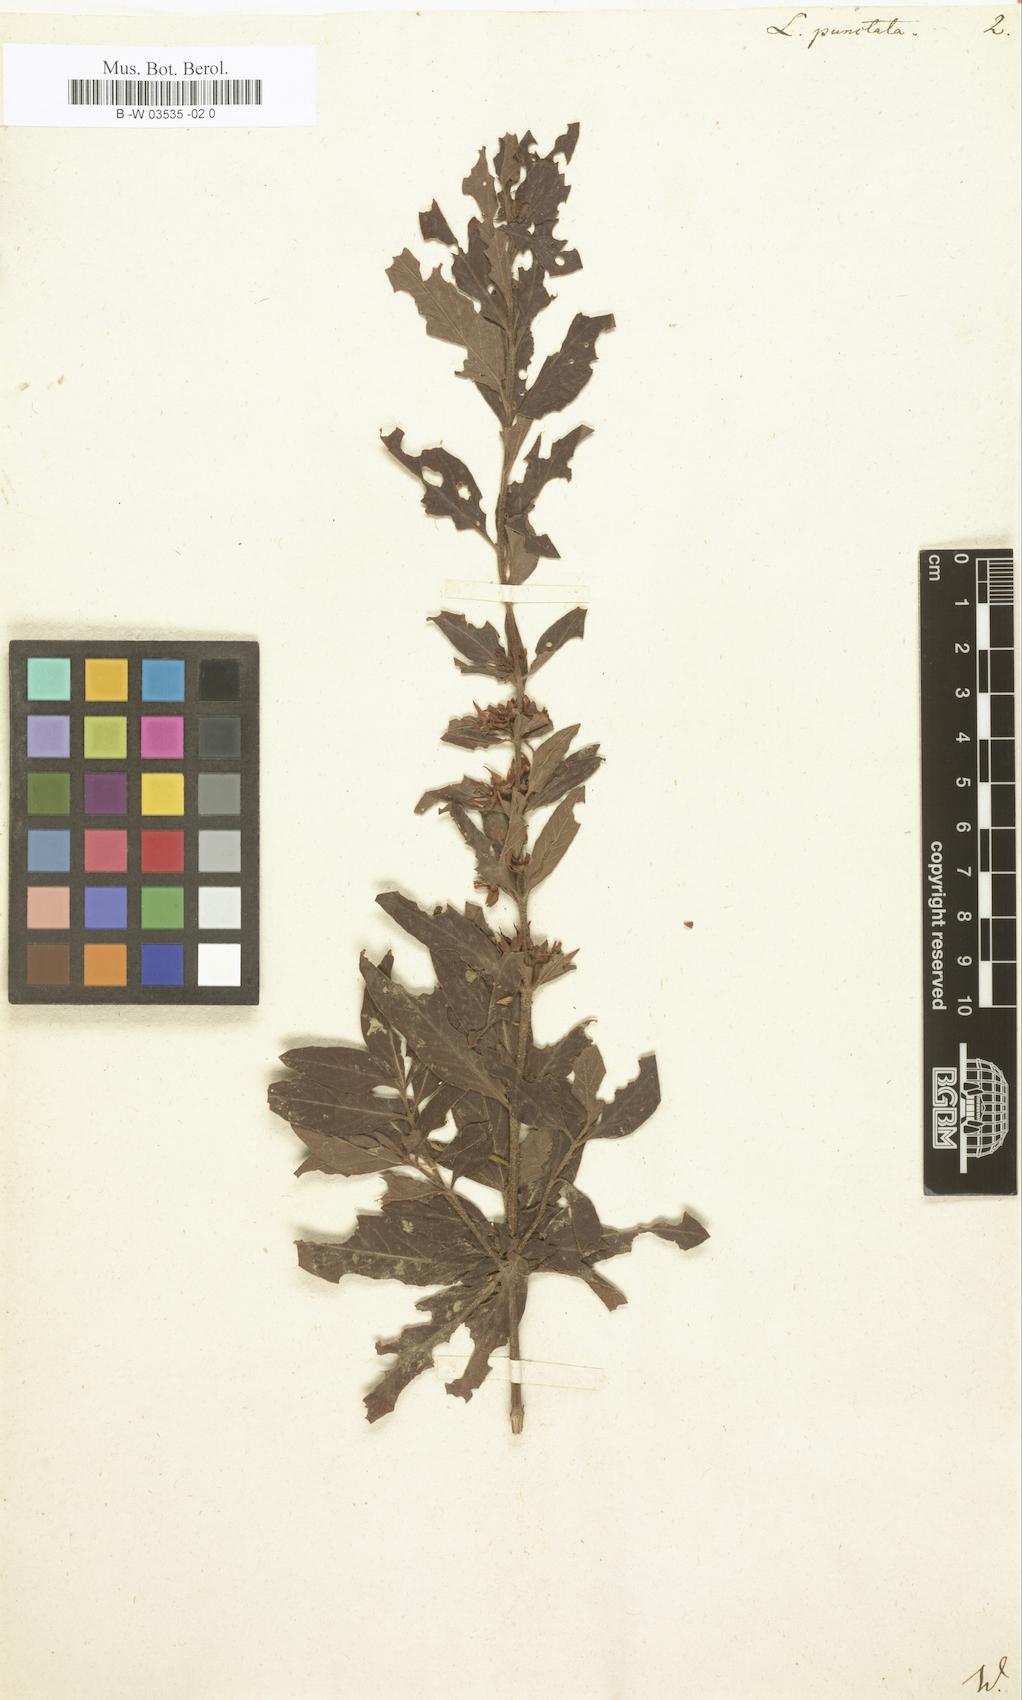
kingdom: Plantae
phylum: Tracheophyta
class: Magnoliopsida
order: Ericales
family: Primulaceae
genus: Lysimachia
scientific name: Lysimachia punctata
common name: Dotted loosestrife
